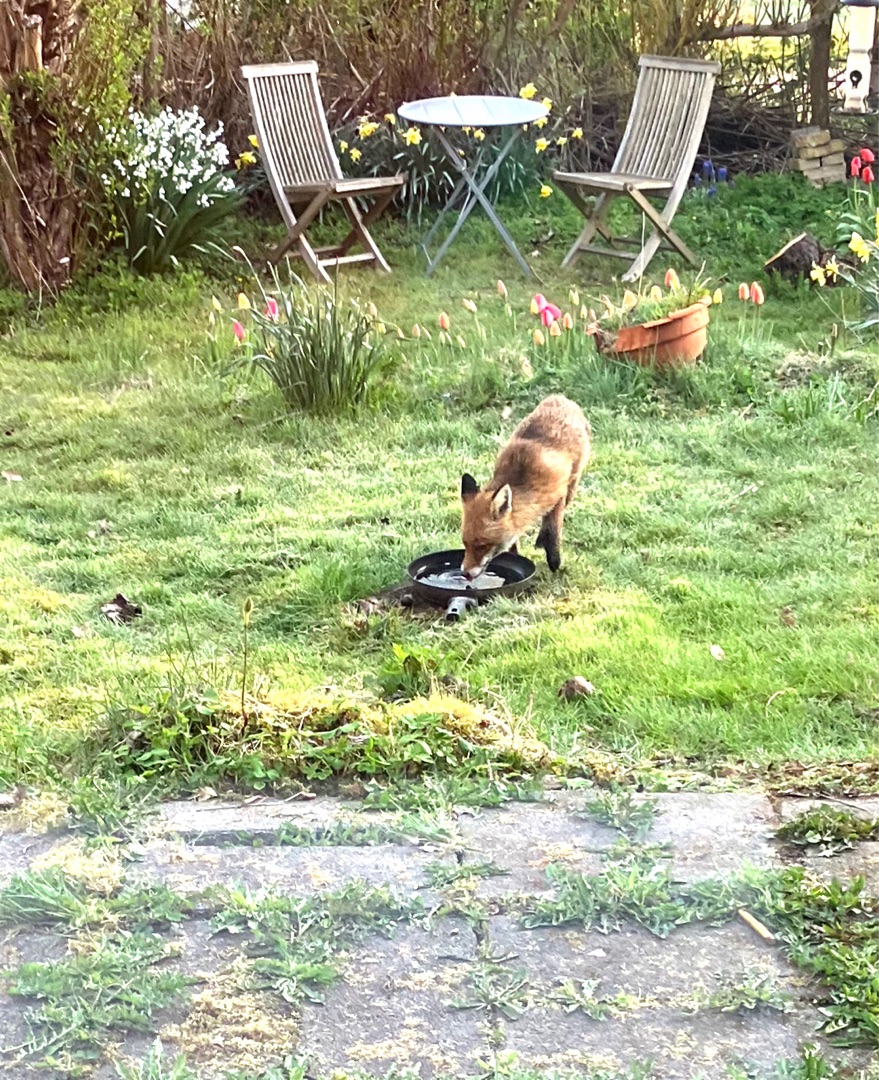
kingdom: Animalia
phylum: Chordata
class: Mammalia
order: Carnivora
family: Canidae
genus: Vulpes
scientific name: Vulpes vulpes
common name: Ræv
